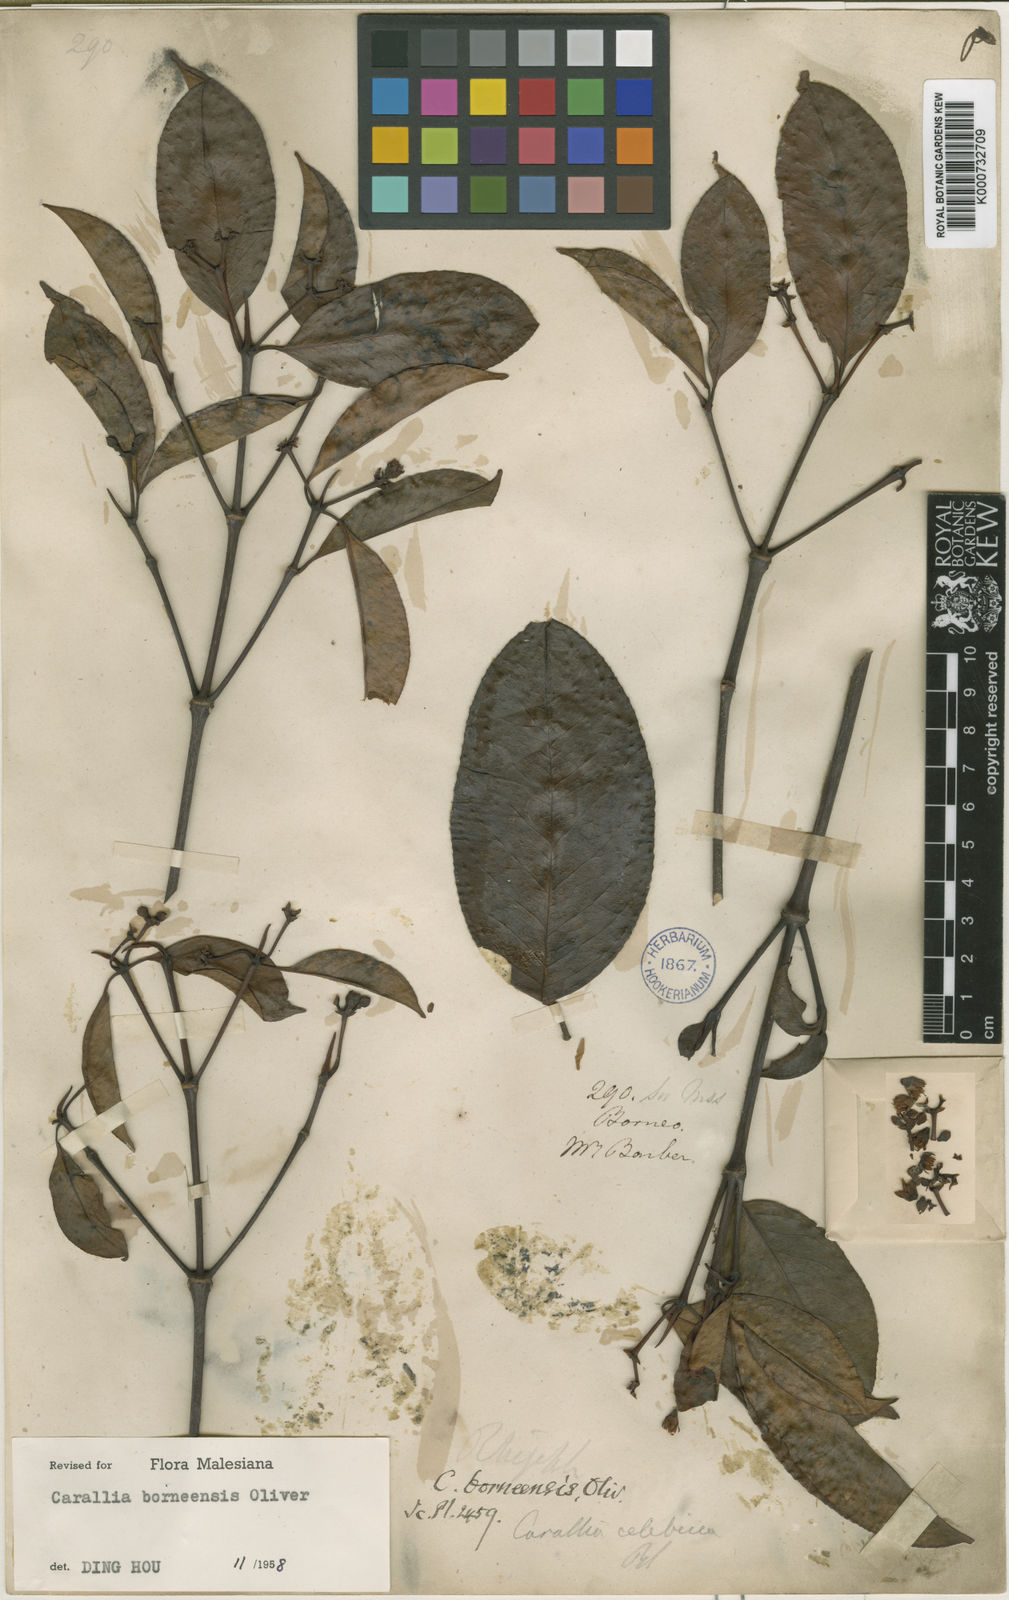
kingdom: Plantae
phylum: Tracheophyta
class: Magnoliopsida
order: Malpighiales
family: Rhizophoraceae
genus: Carallia
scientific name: Carallia borneensis
